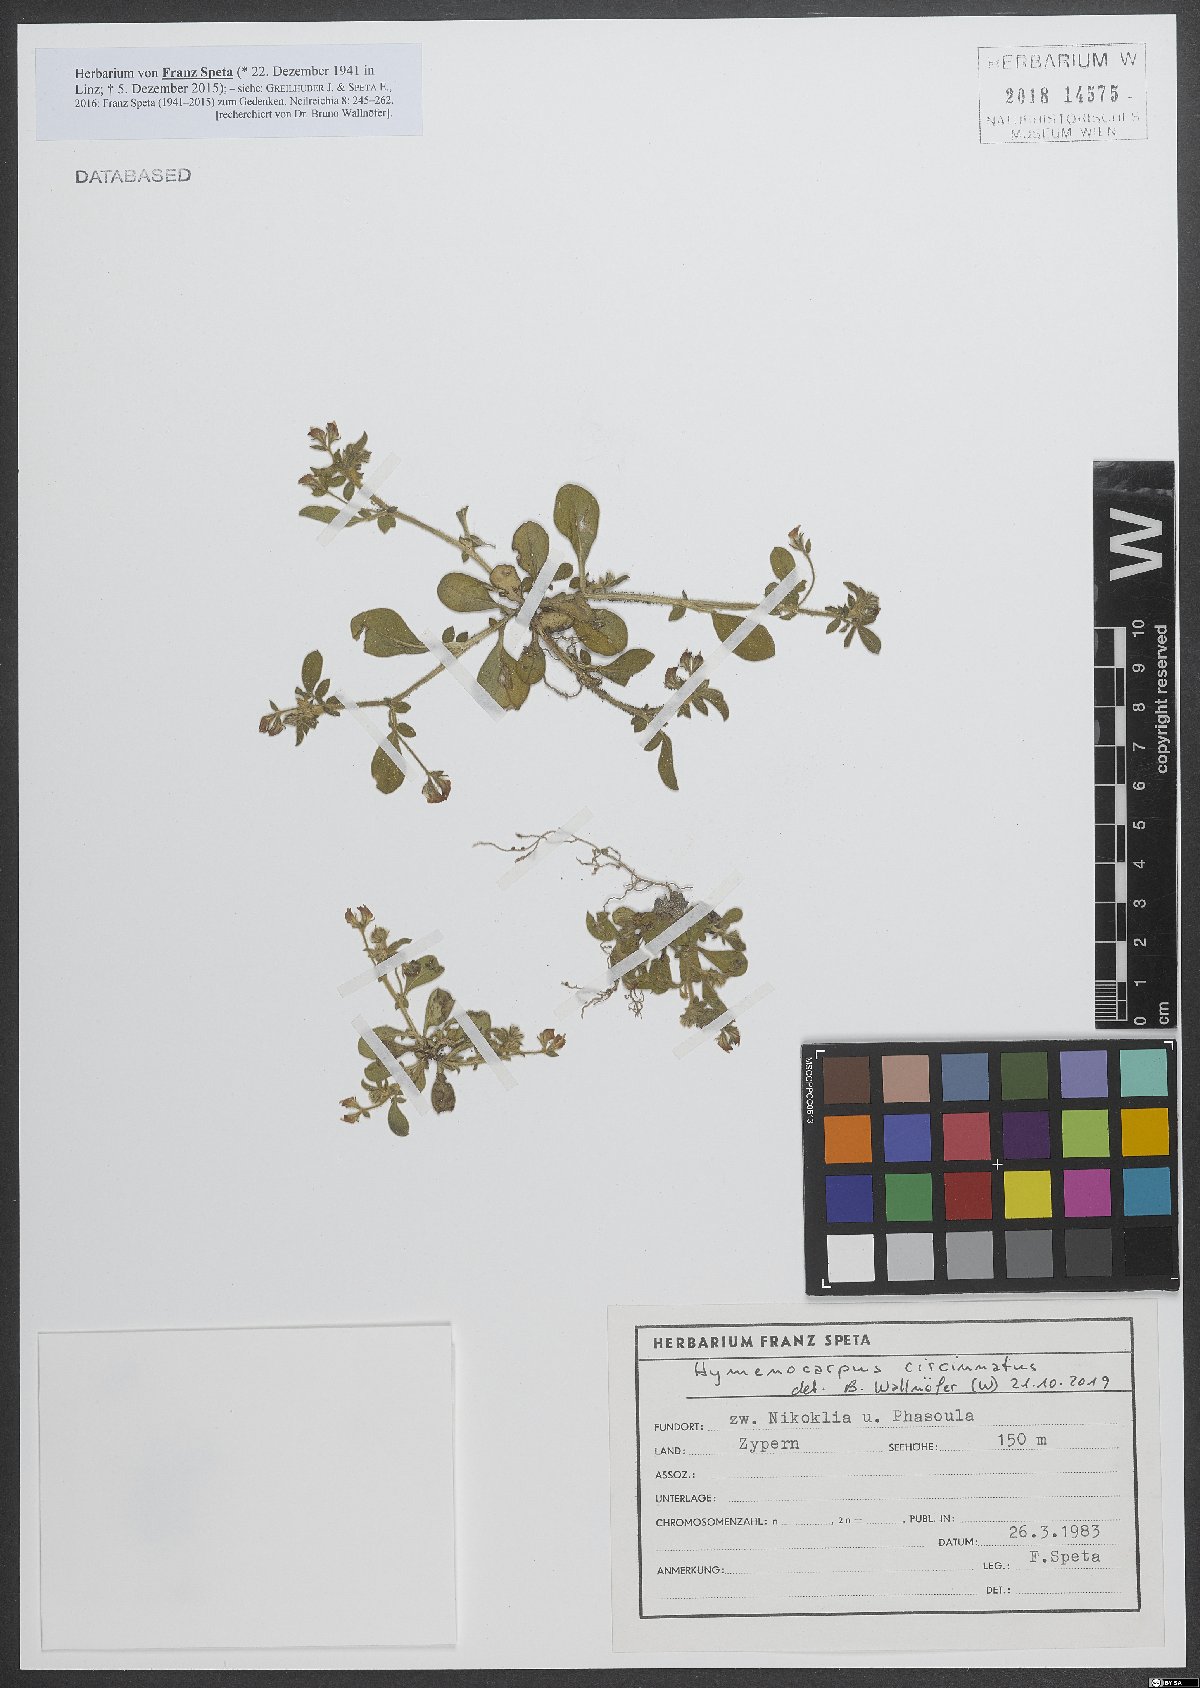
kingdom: Plantae
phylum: Tracheophyta
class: Magnoliopsida
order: Fabales
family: Fabaceae
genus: Anthyllis
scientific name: Anthyllis circinnata
